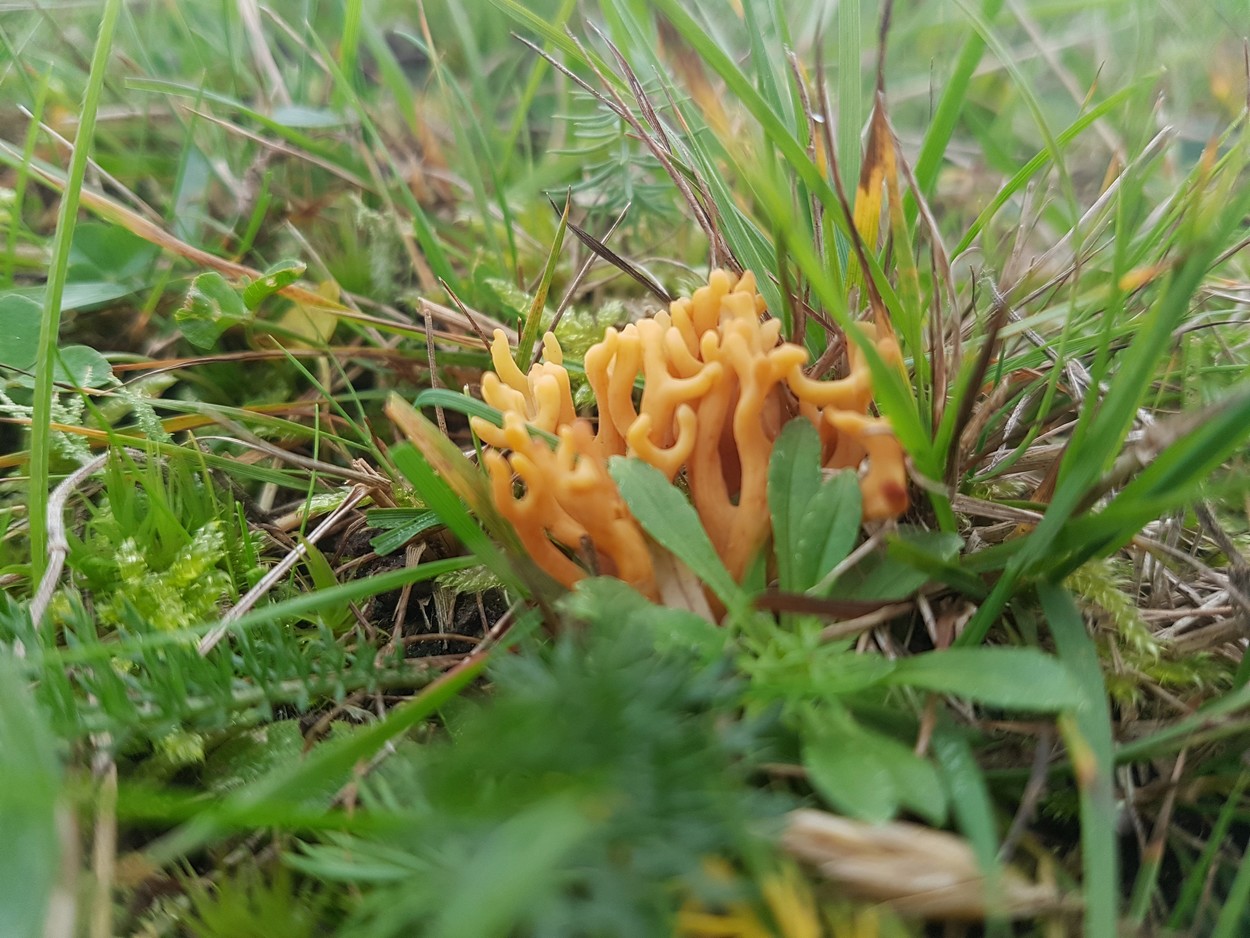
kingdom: Fungi
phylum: Basidiomycota
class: Agaricomycetes
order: Agaricales
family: Clavariaceae
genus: Clavulinopsis
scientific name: Clavulinopsis corniculata
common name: eng-køllesvamp
